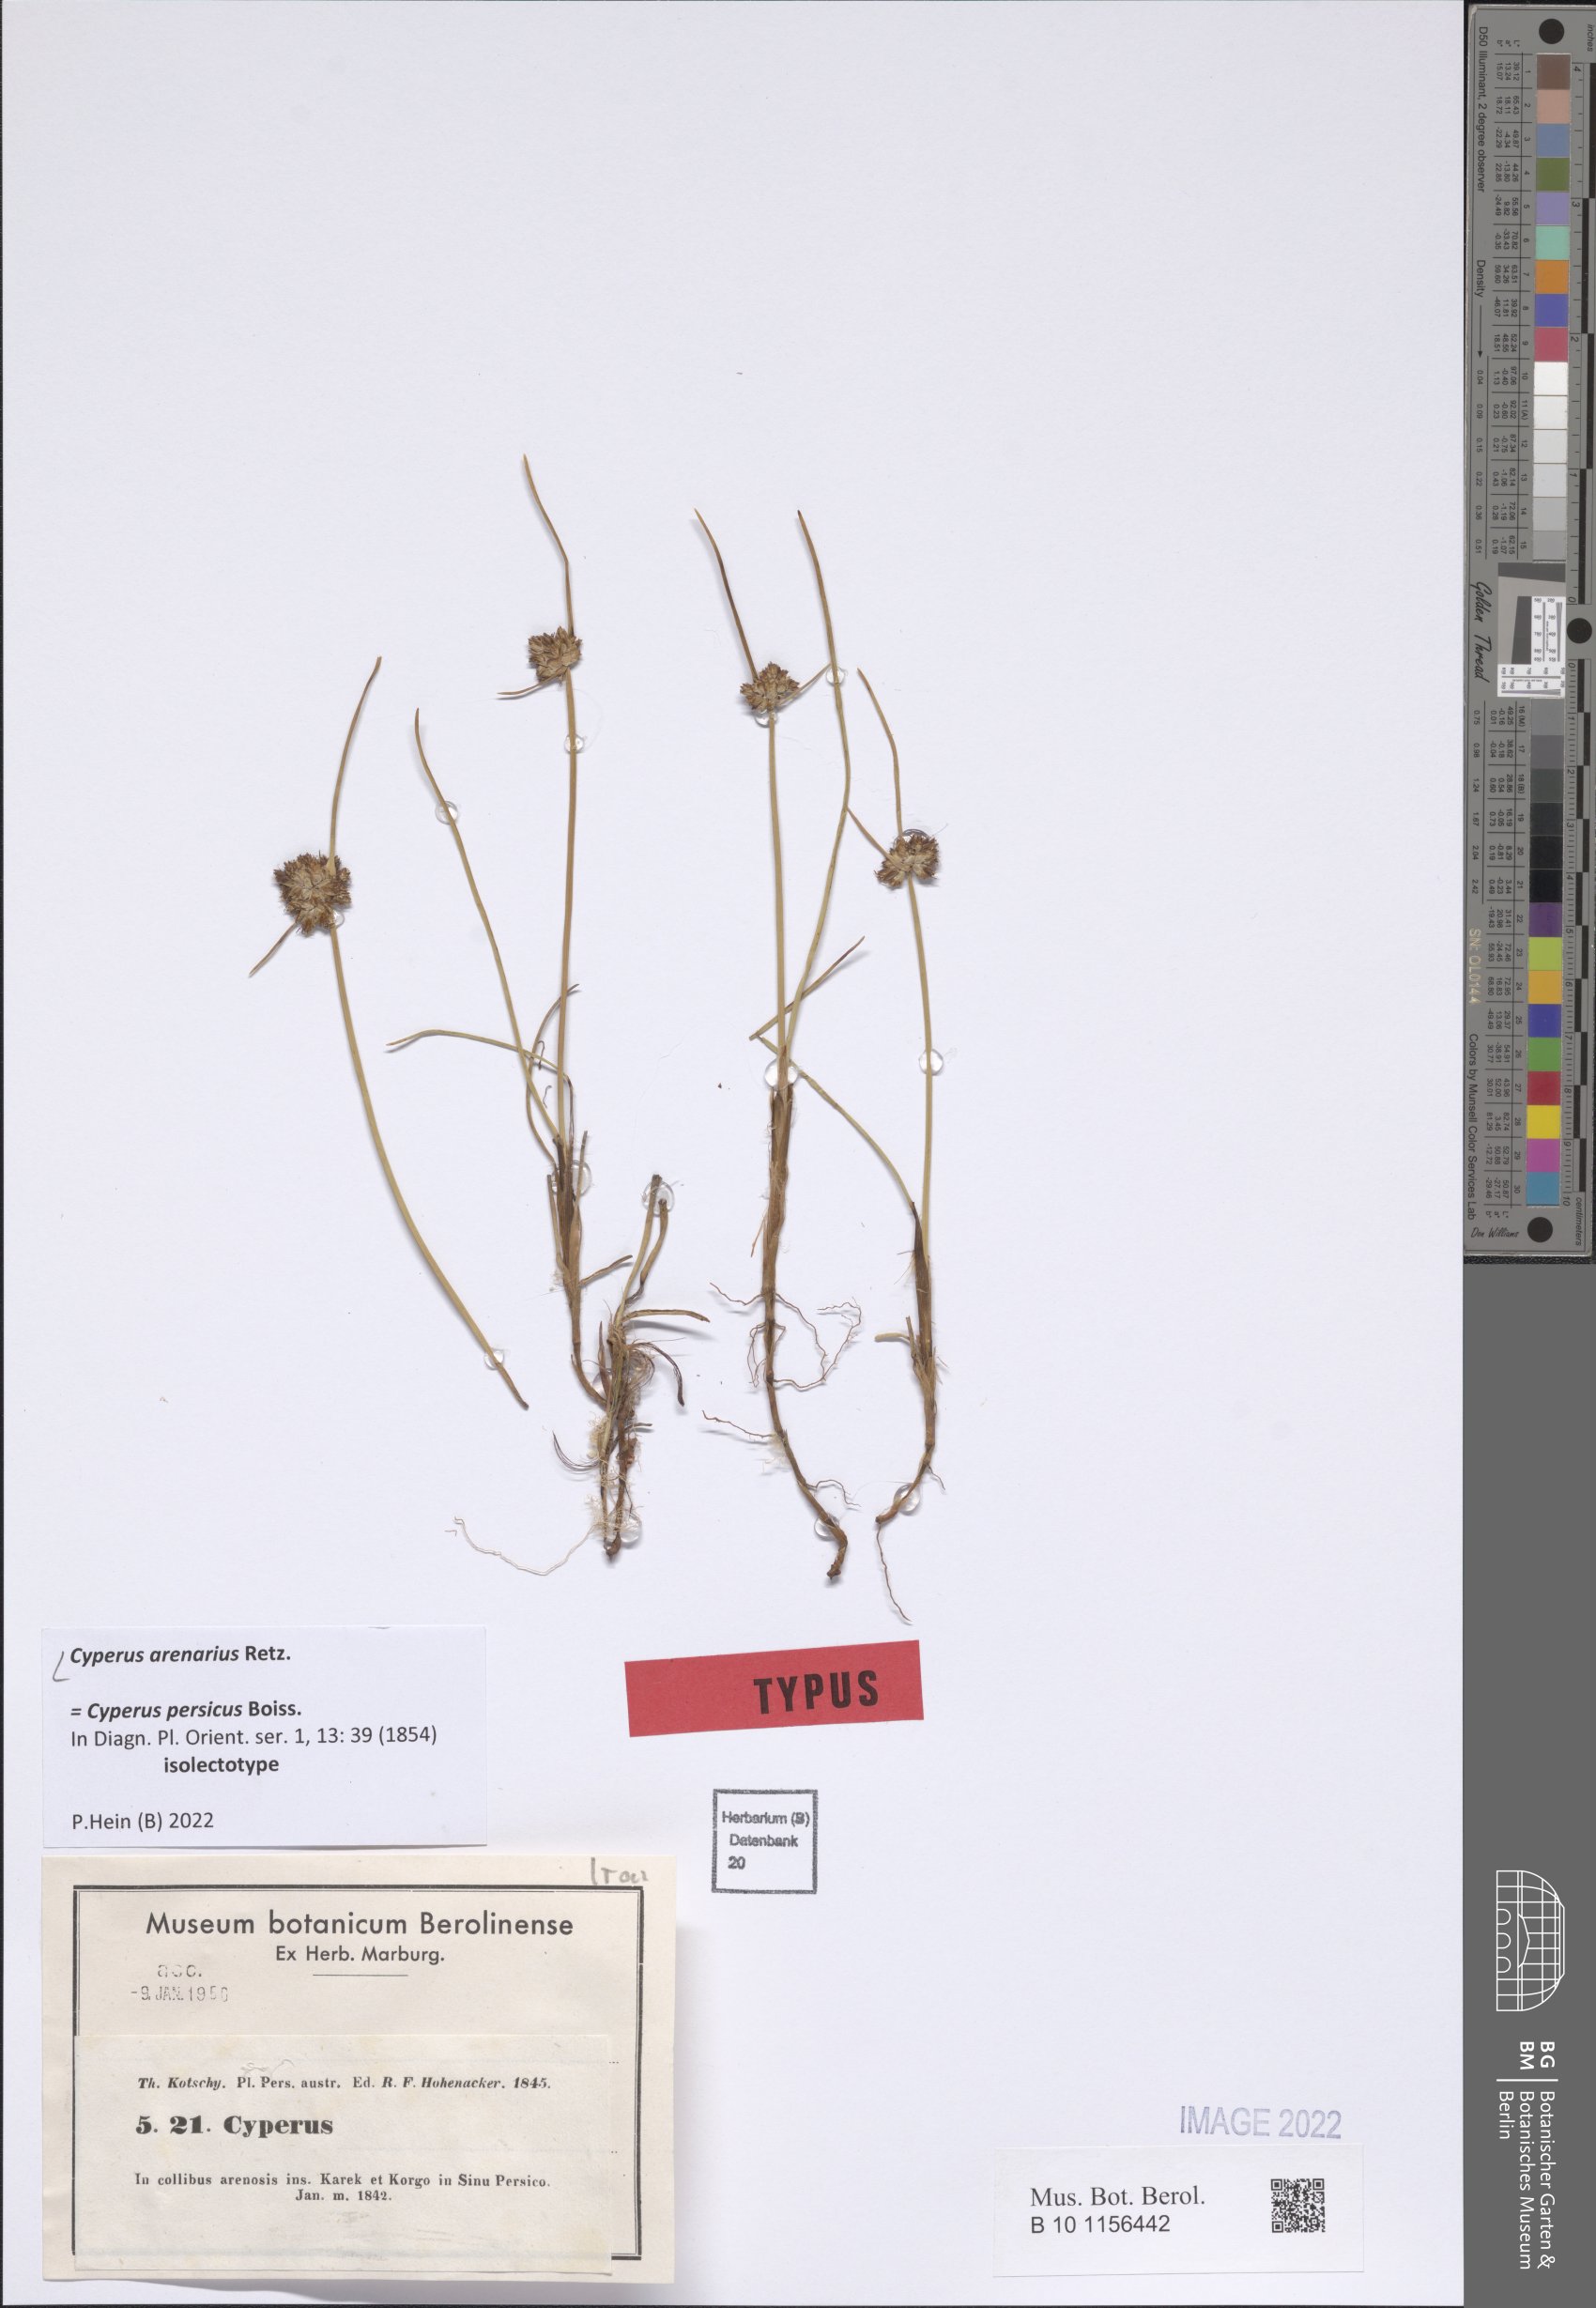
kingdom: Plantae
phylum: Tracheophyta
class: Liliopsida
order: Poales
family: Cyperaceae
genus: Cyperus
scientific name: Cyperus arenarius
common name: Dwarf sedge
